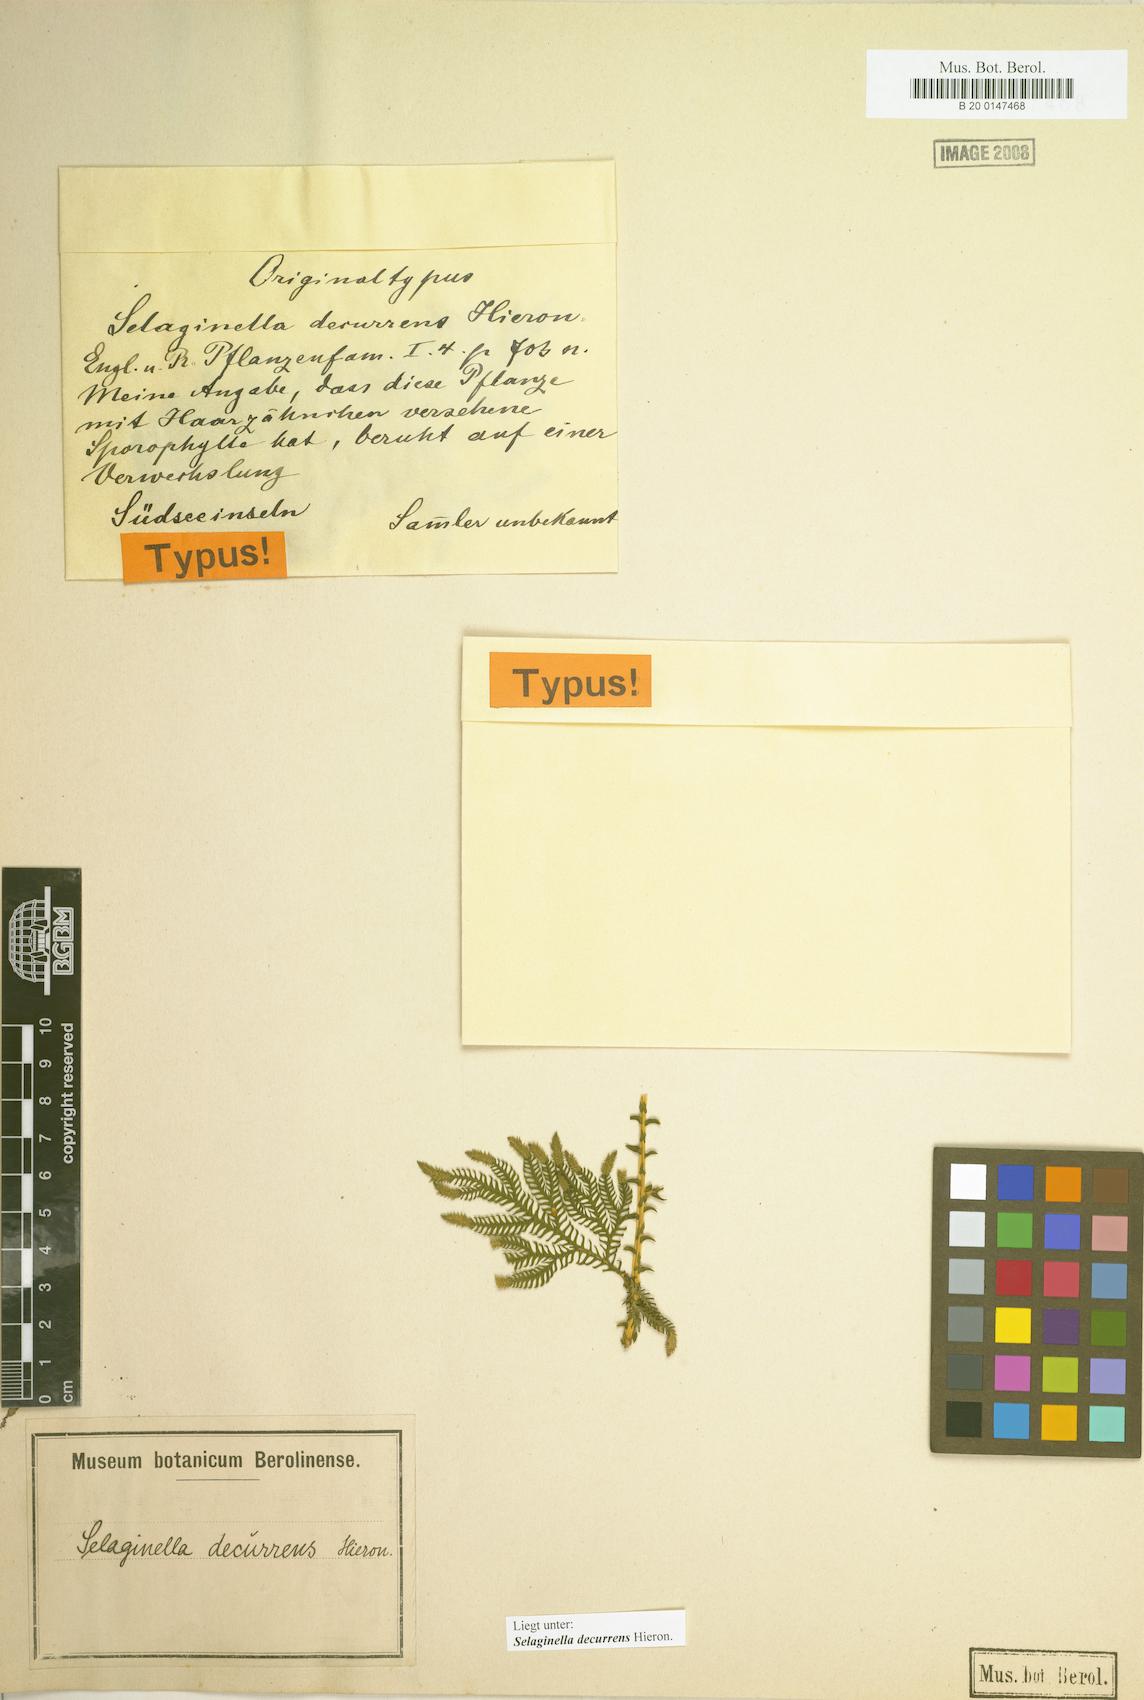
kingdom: Plantae
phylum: Tracheophyta
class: Lycopodiopsida
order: Selaginellales
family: Selaginellaceae
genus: Selaginella
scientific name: Selaginella decurrens
